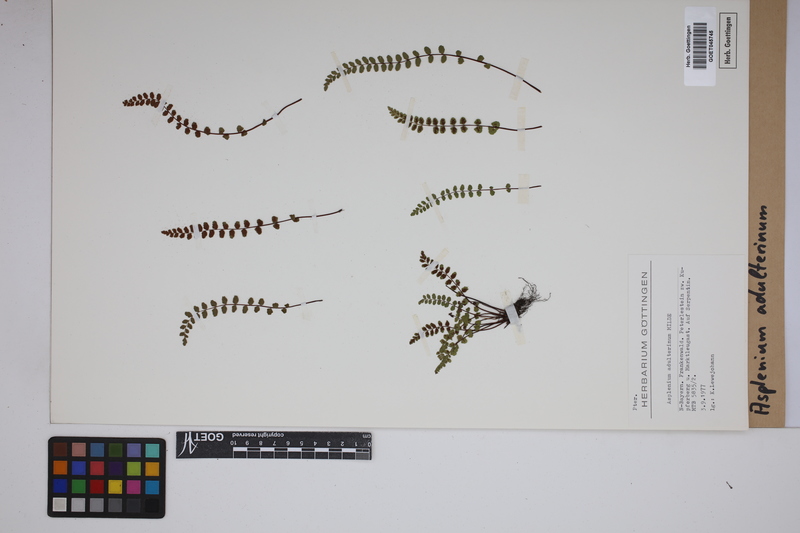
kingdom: Plantae
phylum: Tracheophyta
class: Polypodiopsida
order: Polypodiales
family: Aspleniaceae
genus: Asplenium
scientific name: Asplenium adulterinum
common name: Adulterated spleenwort
